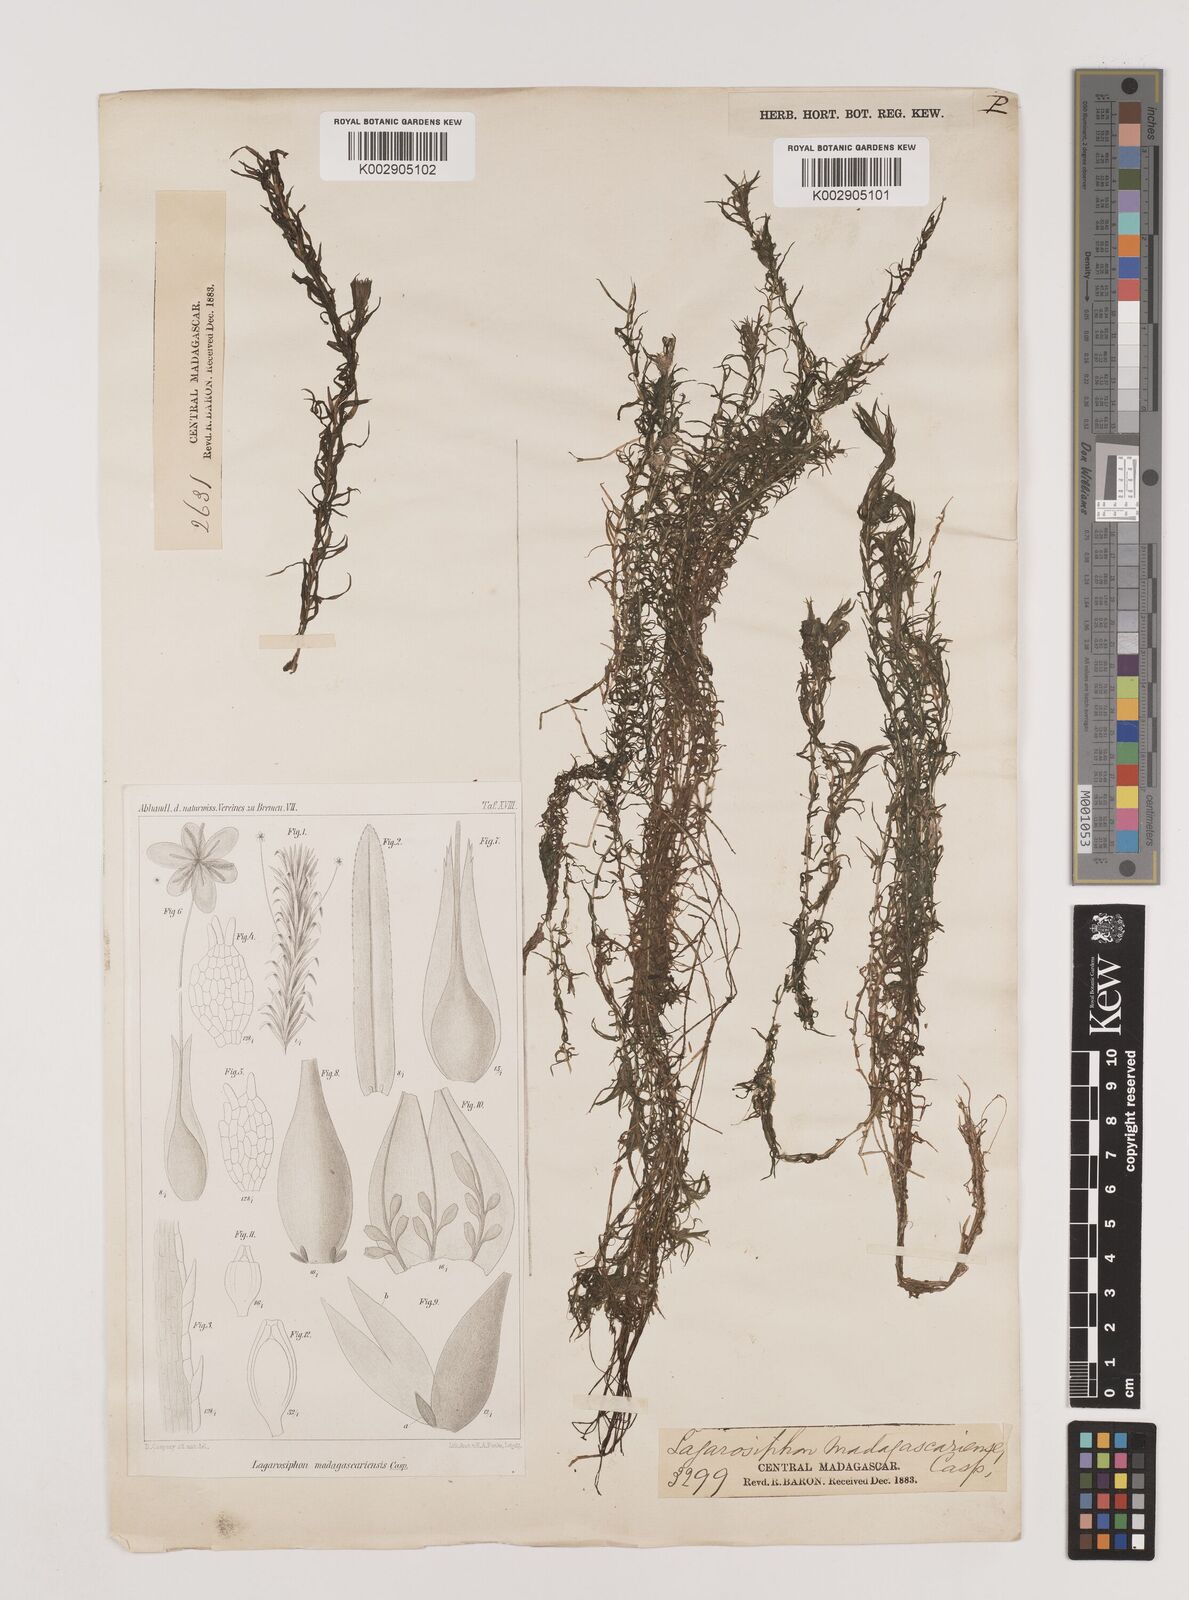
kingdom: Plantae
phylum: Tracheophyta
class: Liliopsida
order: Alismatales
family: Hydrocharitaceae
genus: Lagarosiphon
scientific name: Lagarosiphon madagascariensis
